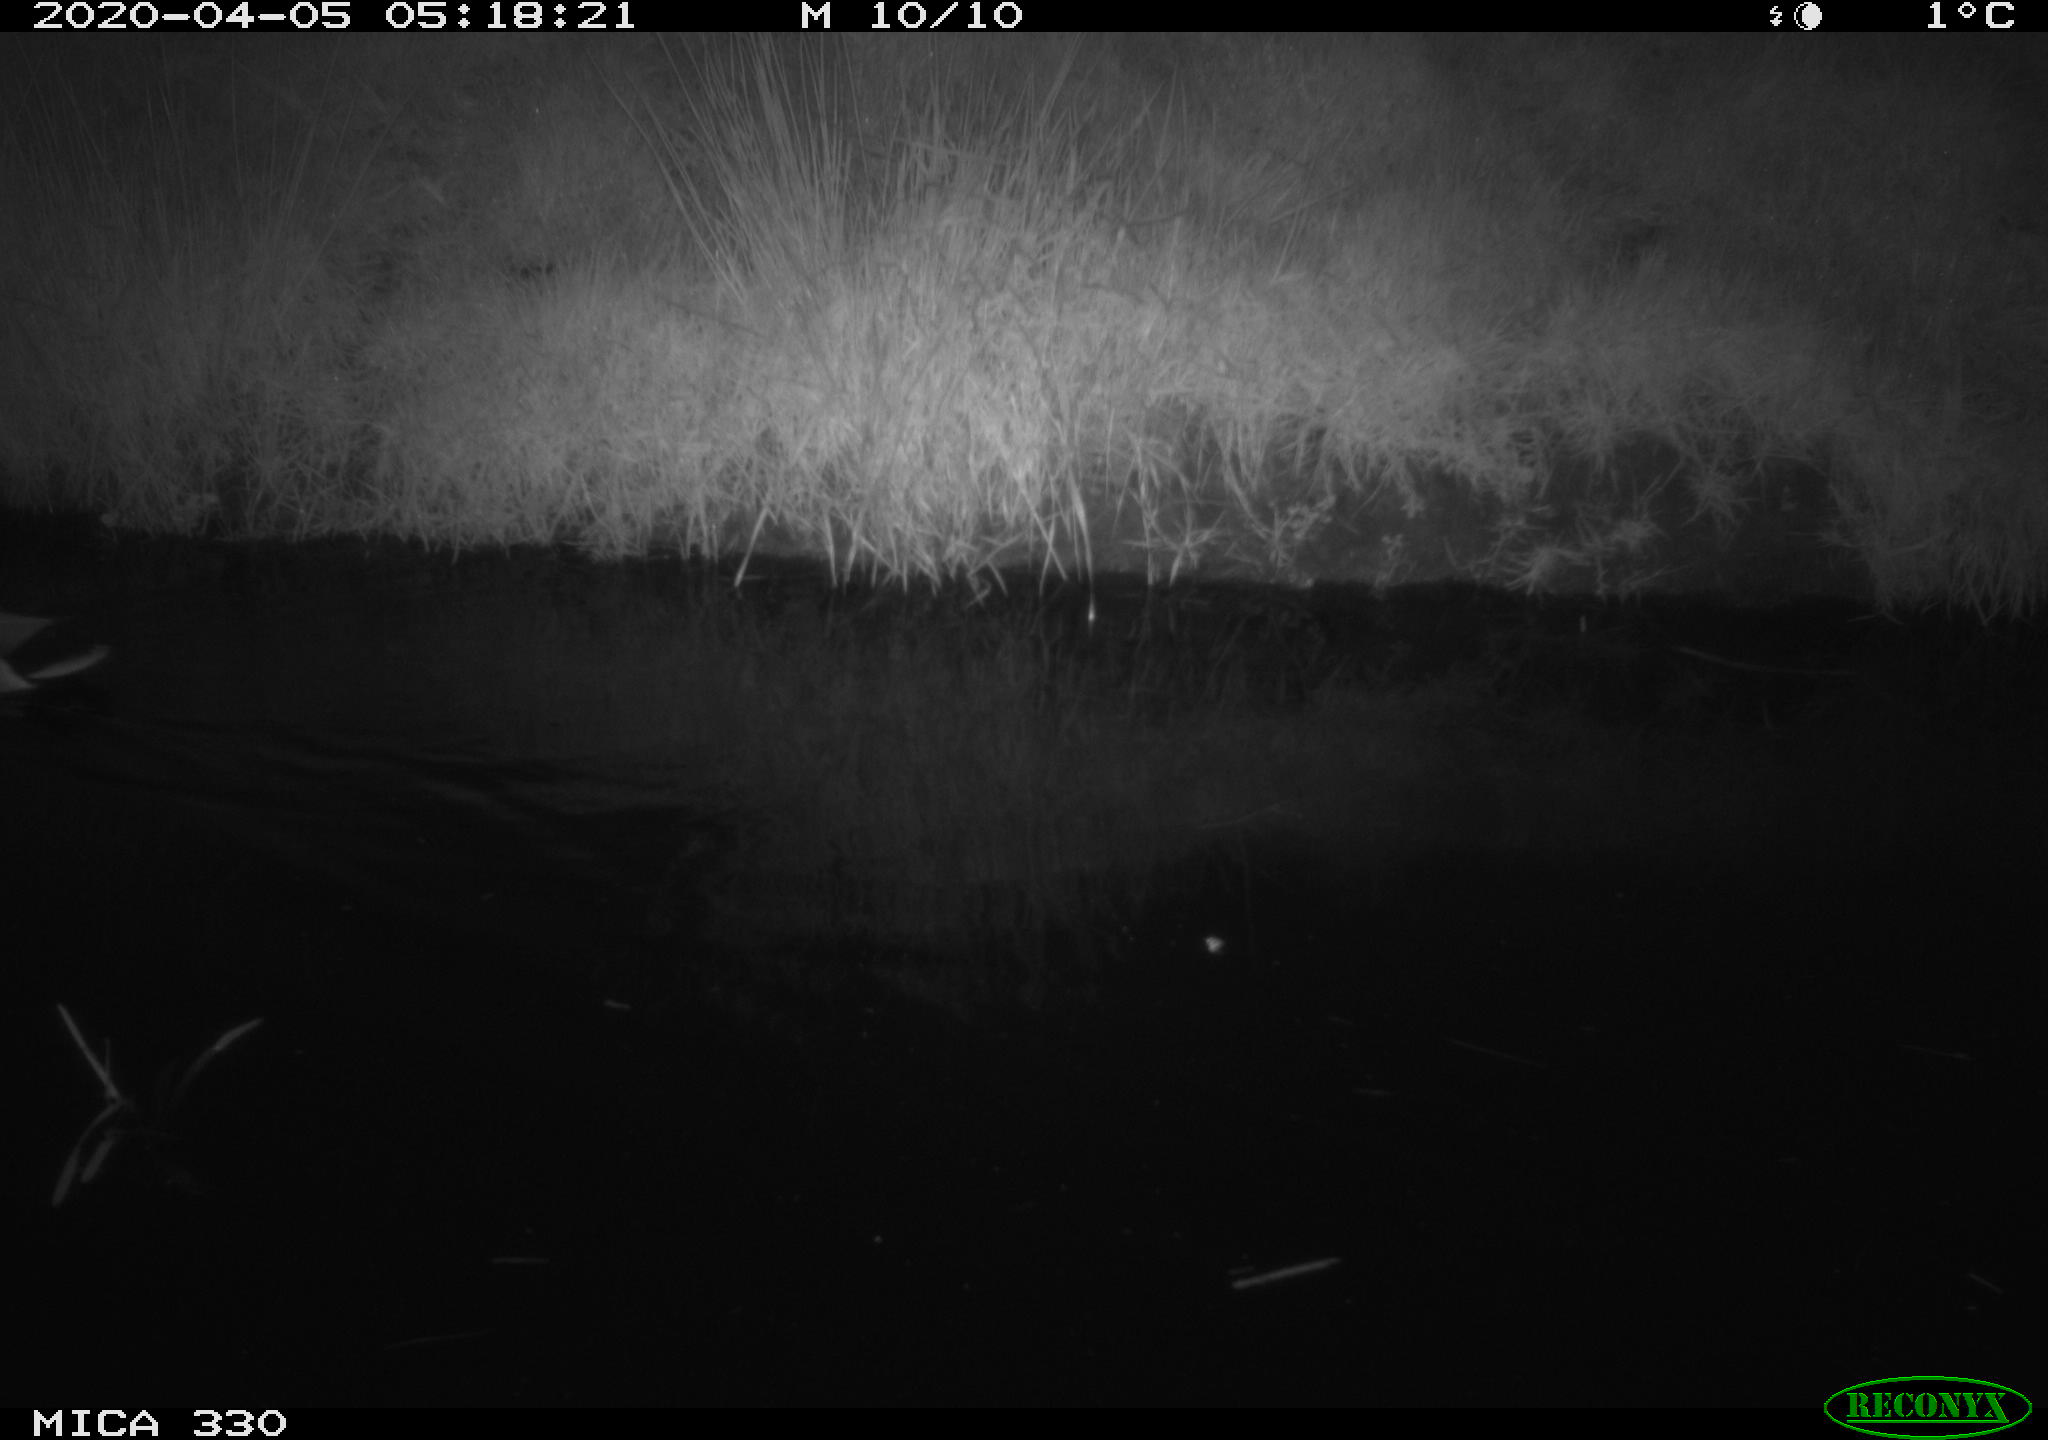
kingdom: Animalia
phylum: Chordata
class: Aves
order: Anseriformes
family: Anatidae
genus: Anas
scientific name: Anas platyrhynchos
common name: Mallard
